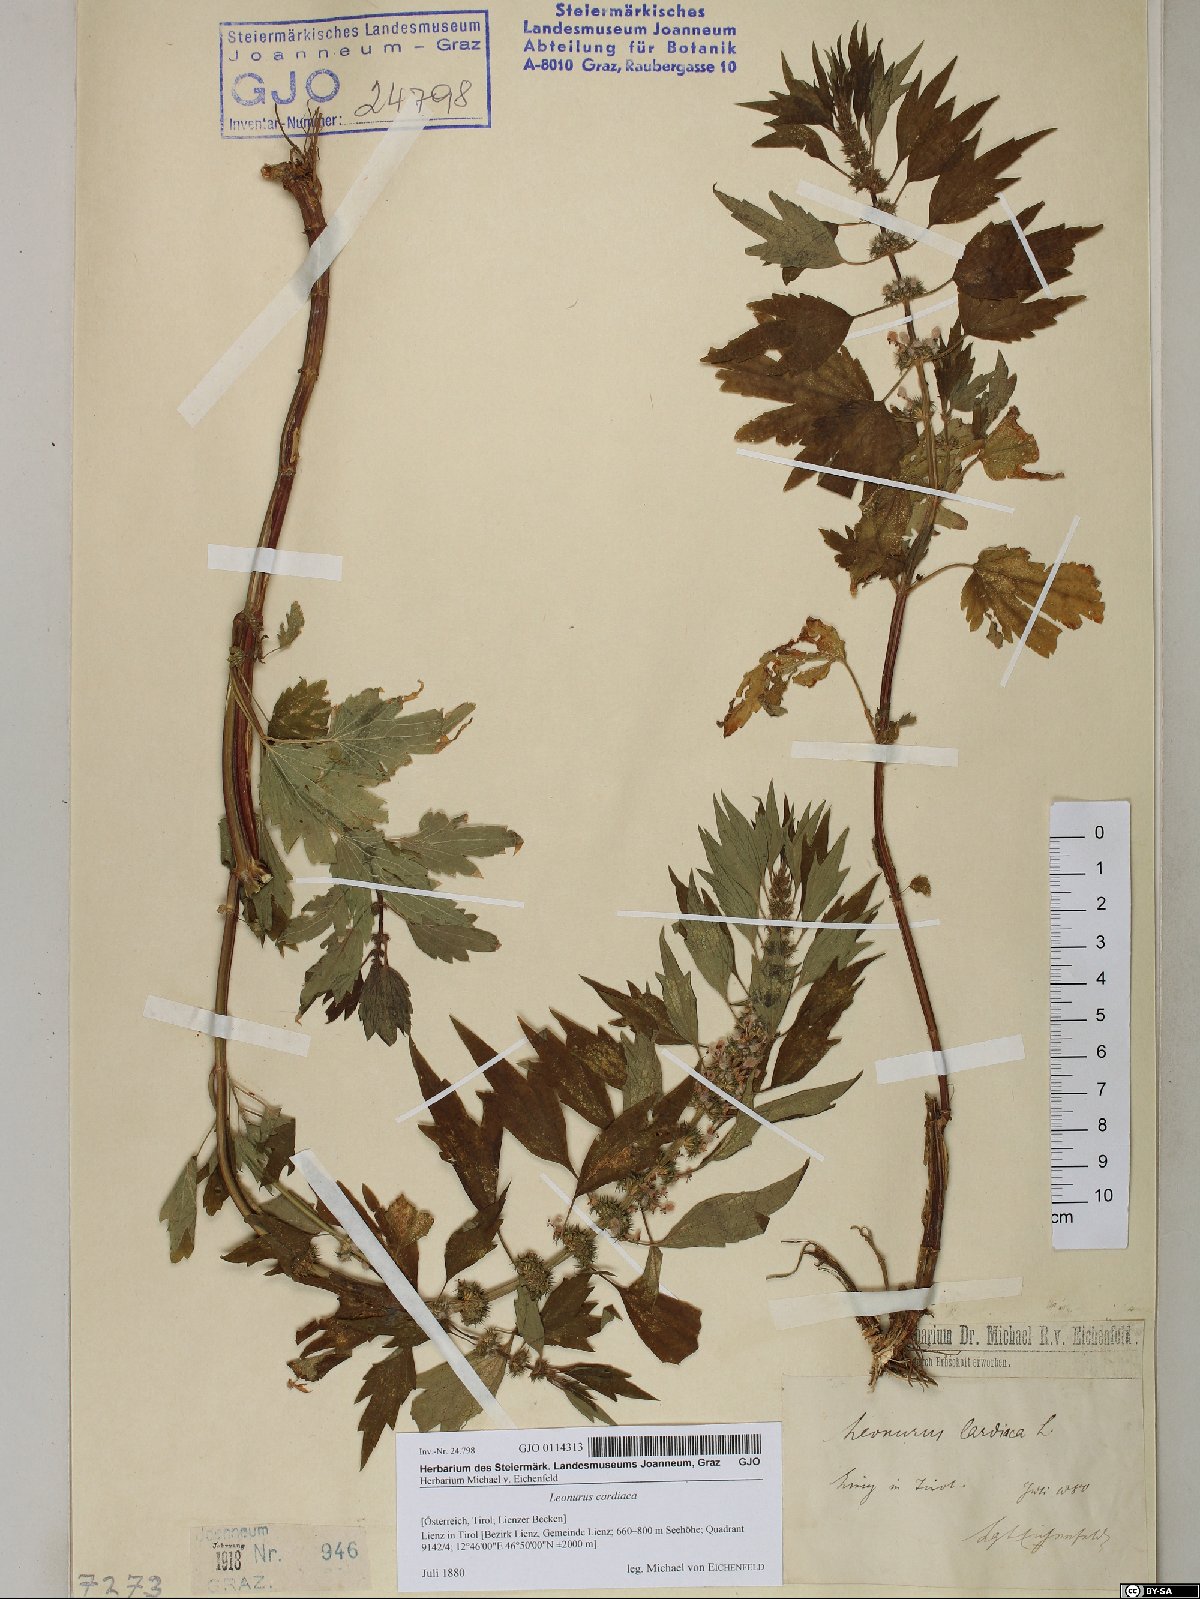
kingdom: Plantae
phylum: Tracheophyta
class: Magnoliopsida
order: Lamiales
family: Lamiaceae
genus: Leonurus
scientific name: Leonurus cardiaca
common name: Motherwort
